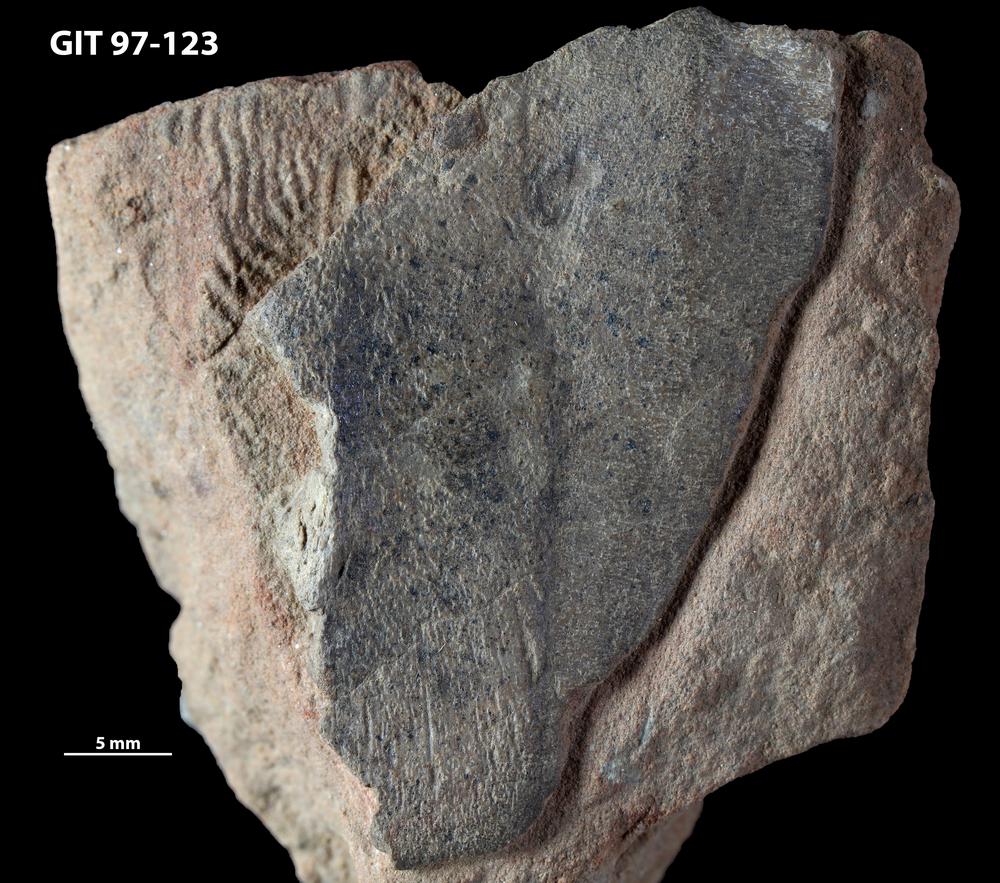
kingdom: Animalia
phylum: Chordata
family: Holonematidae
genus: Holonema
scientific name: Holonema
